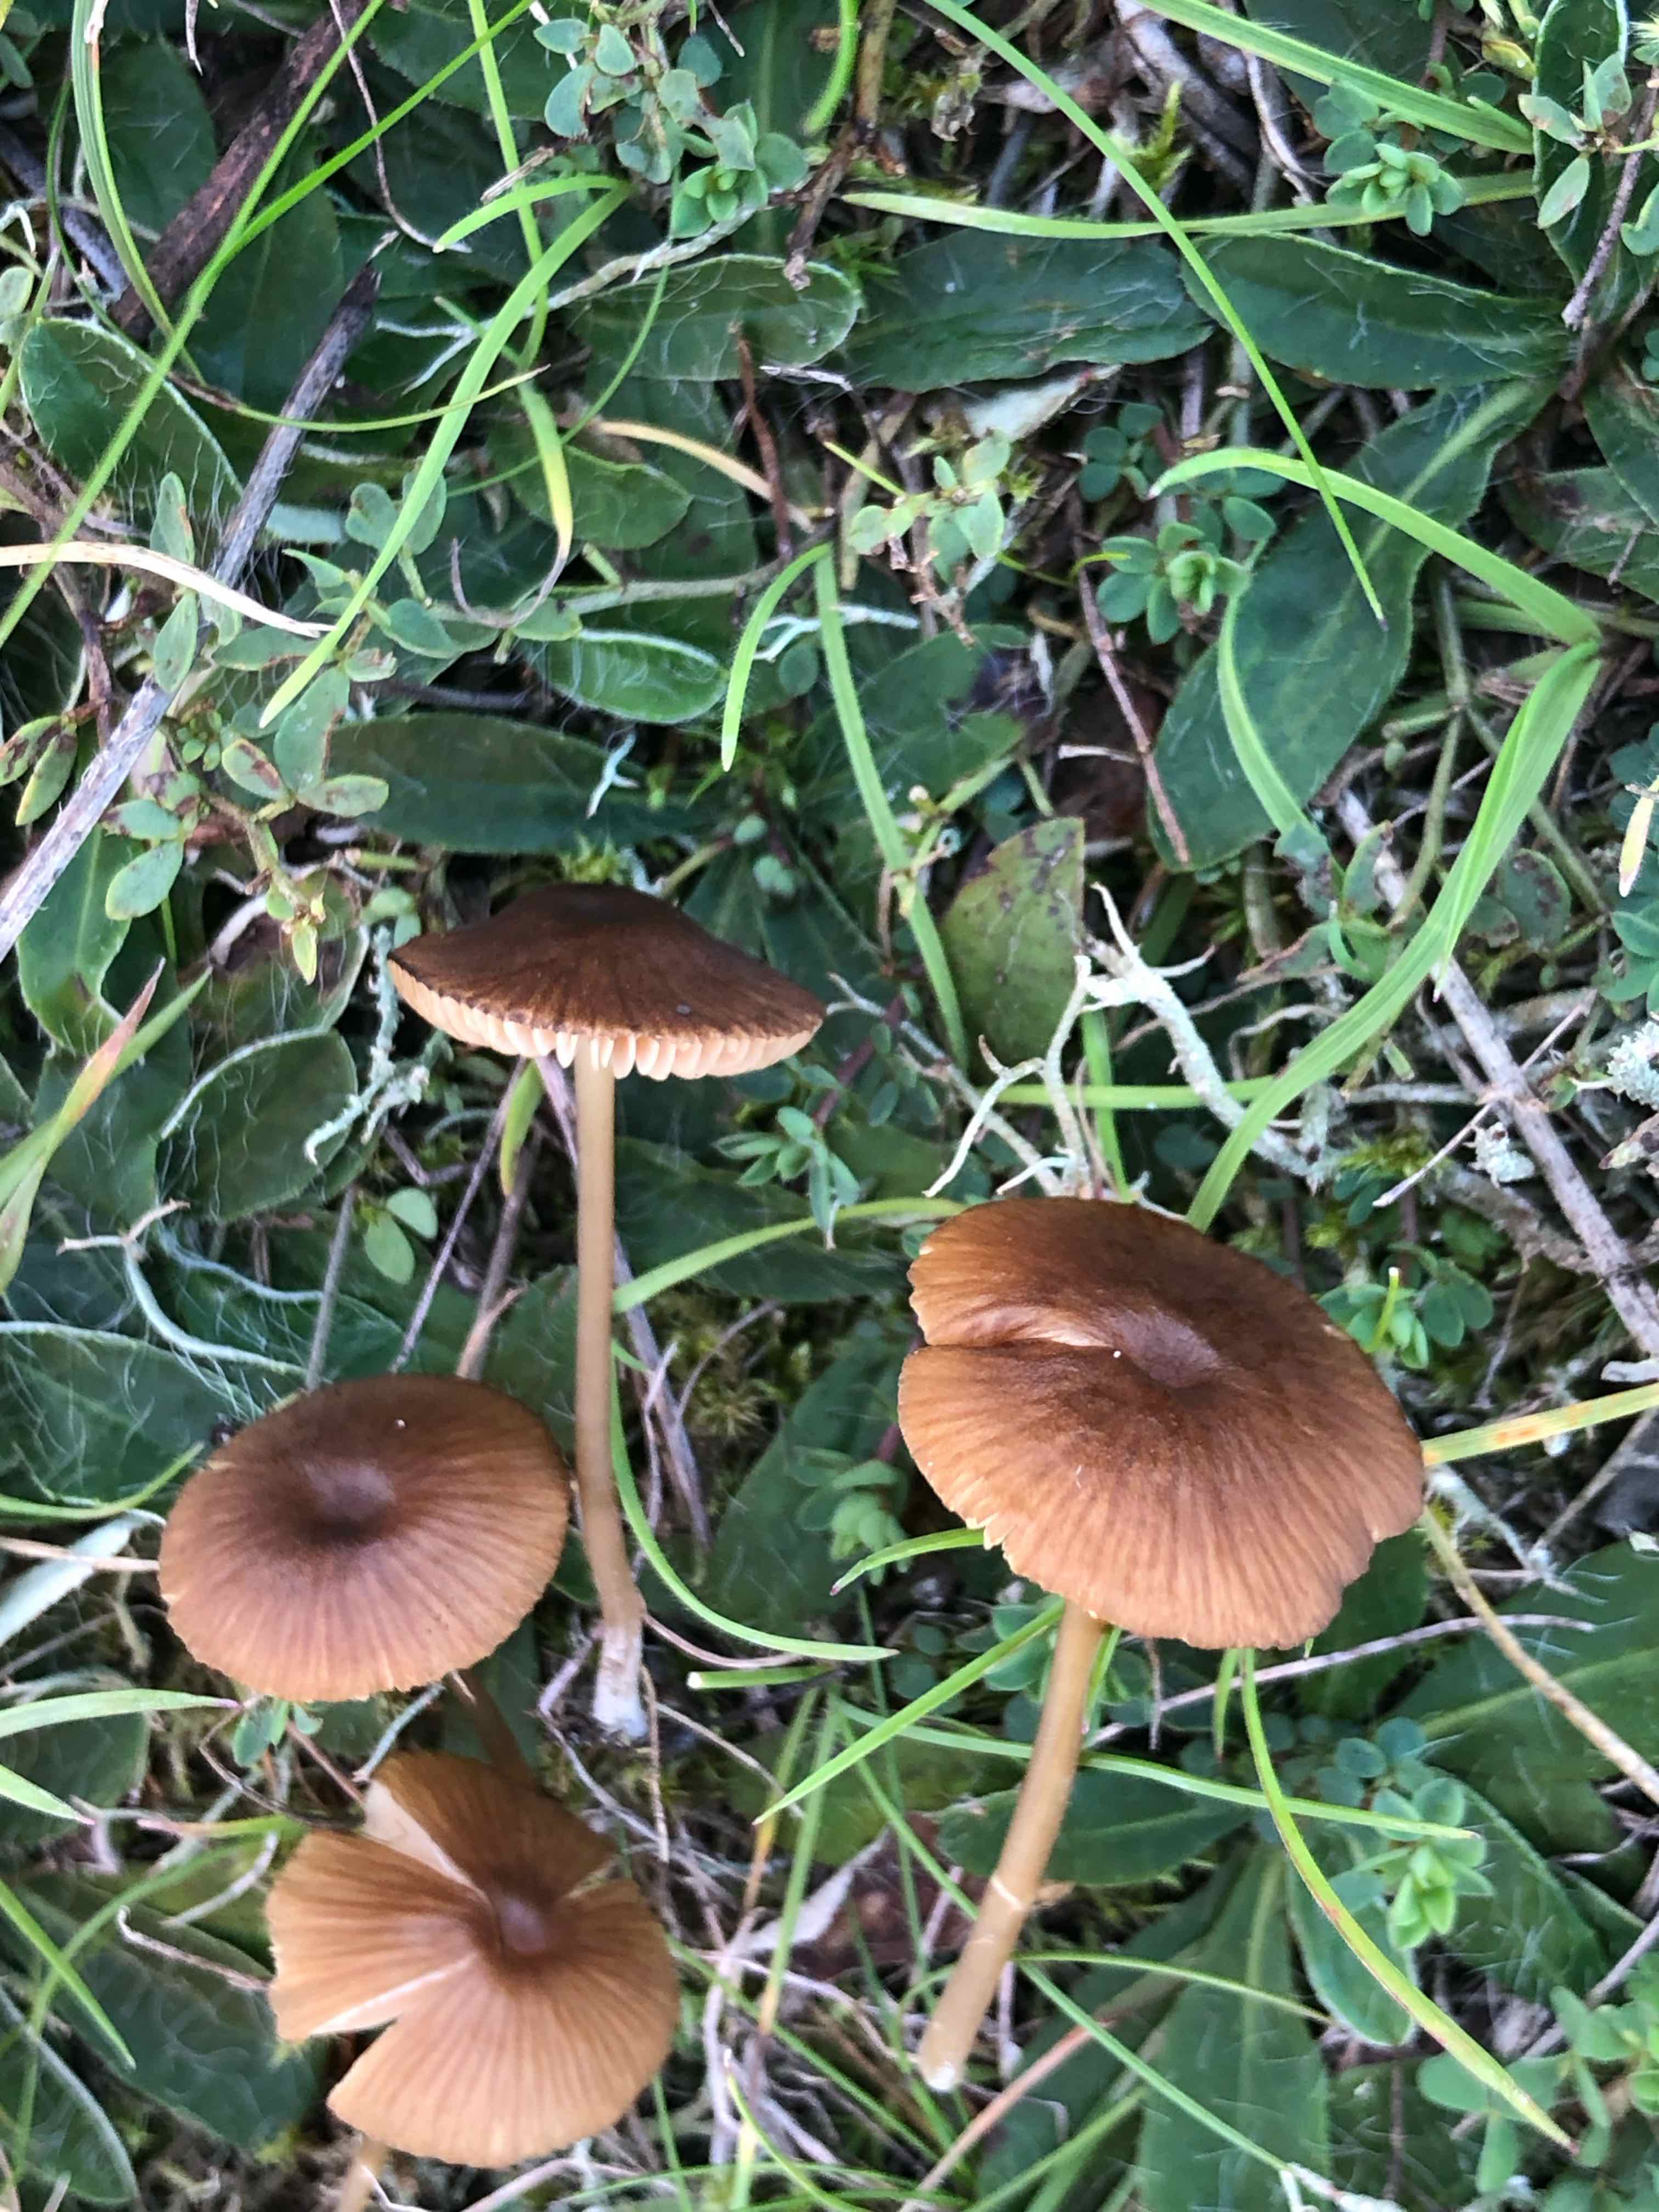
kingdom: Fungi
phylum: Basidiomycota
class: Agaricomycetes
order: Agaricales
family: Entolomataceae
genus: Entoloma
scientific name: Entoloma formosum
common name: brungul rødblad
